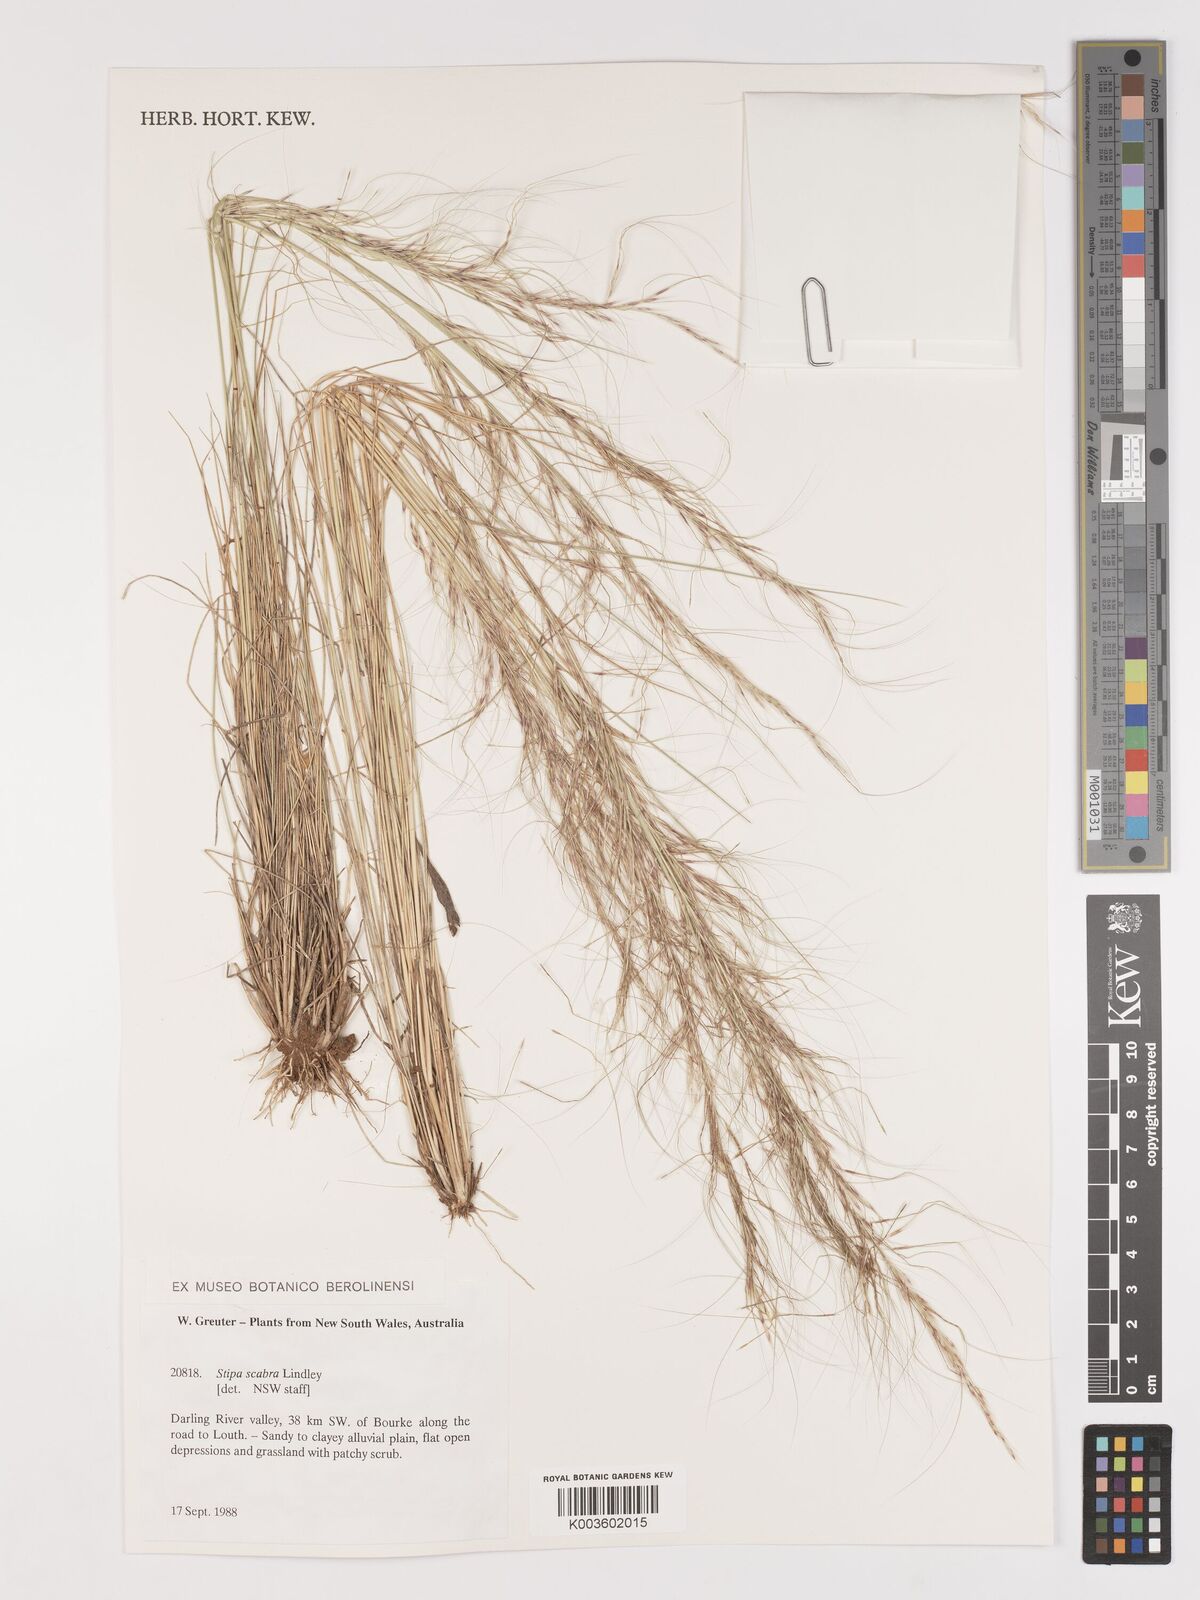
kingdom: Plantae
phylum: Tracheophyta
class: Liliopsida
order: Poales
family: Poaceae
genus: Austrostipa
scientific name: Austrostipa scabra
